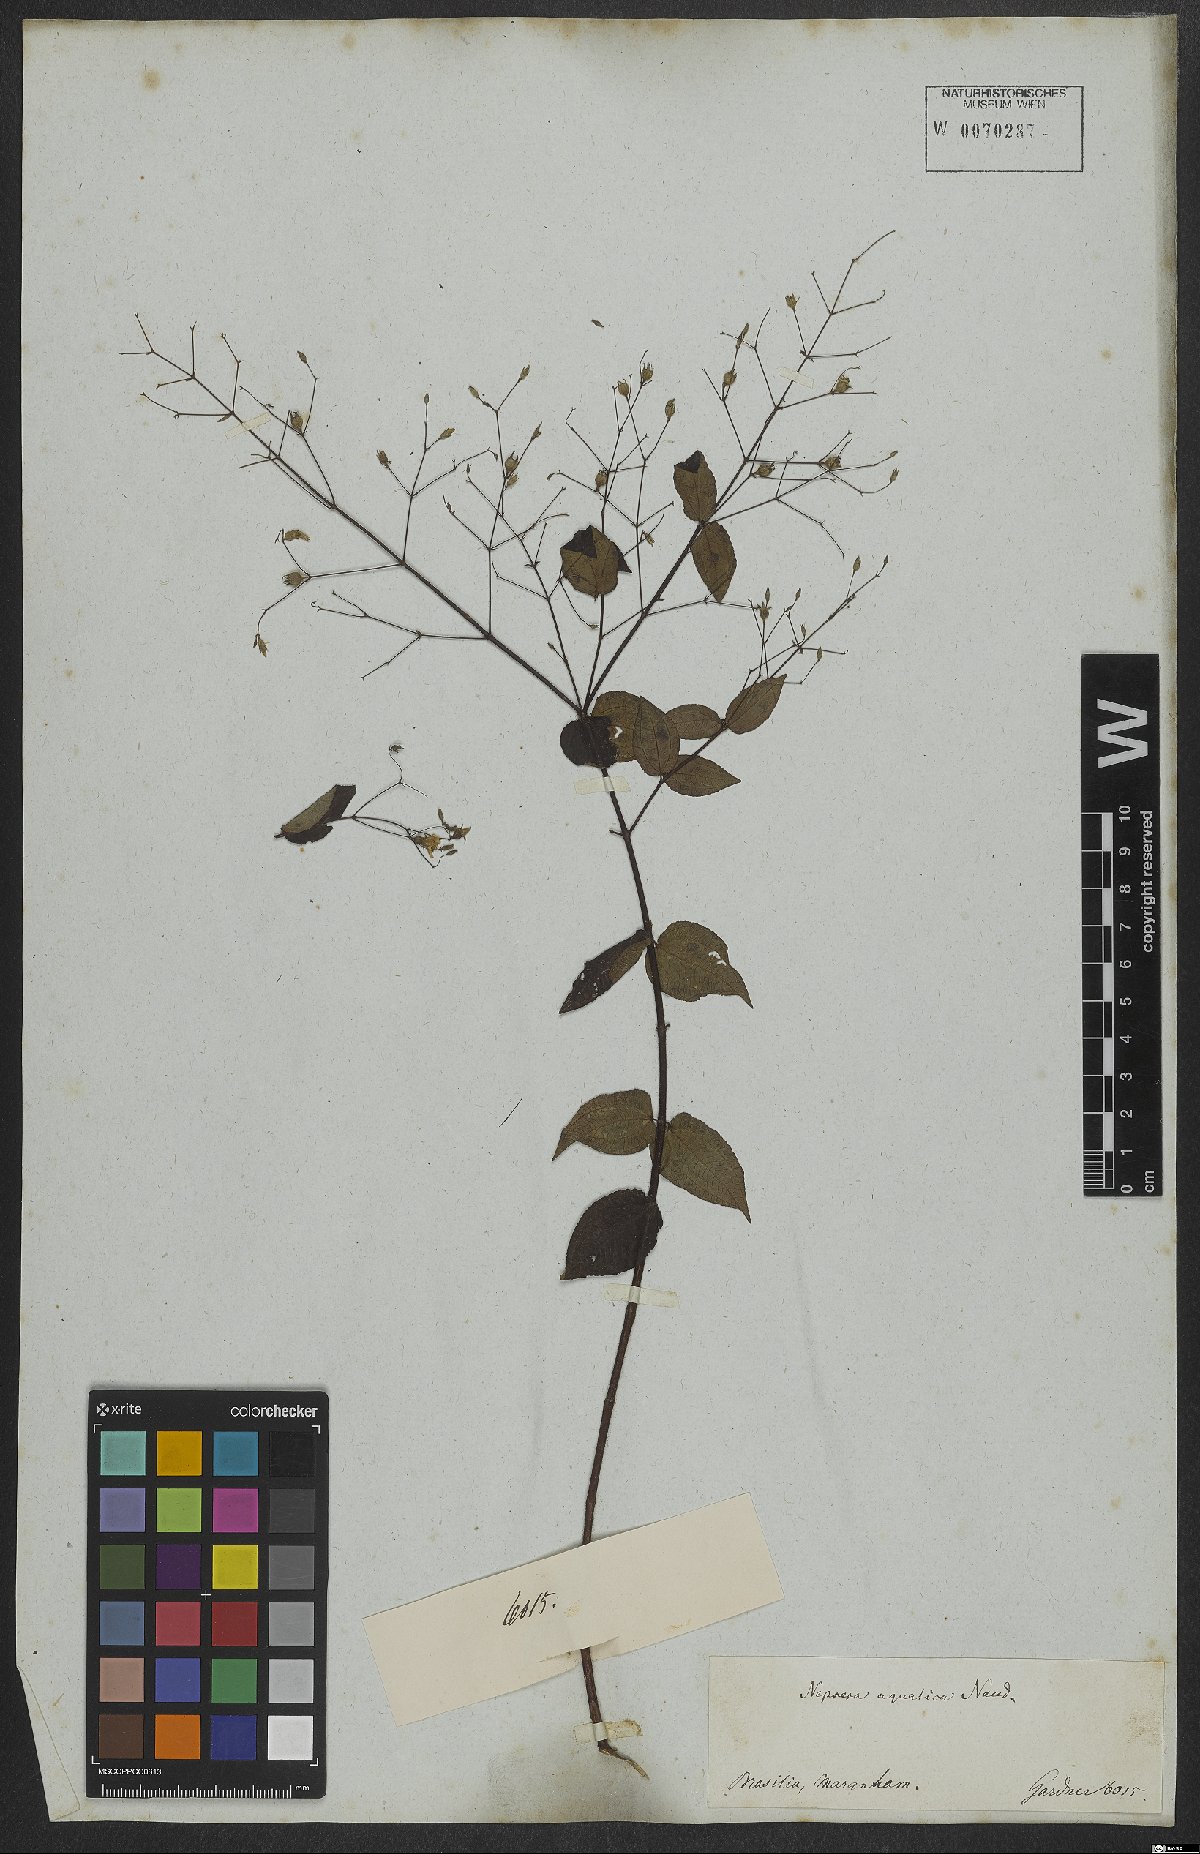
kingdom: Plantae
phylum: Tracheophyta
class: Magnoliopsida
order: Myrtales
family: Melastomataceae
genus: Nepsera
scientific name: Nepsera aquatica
